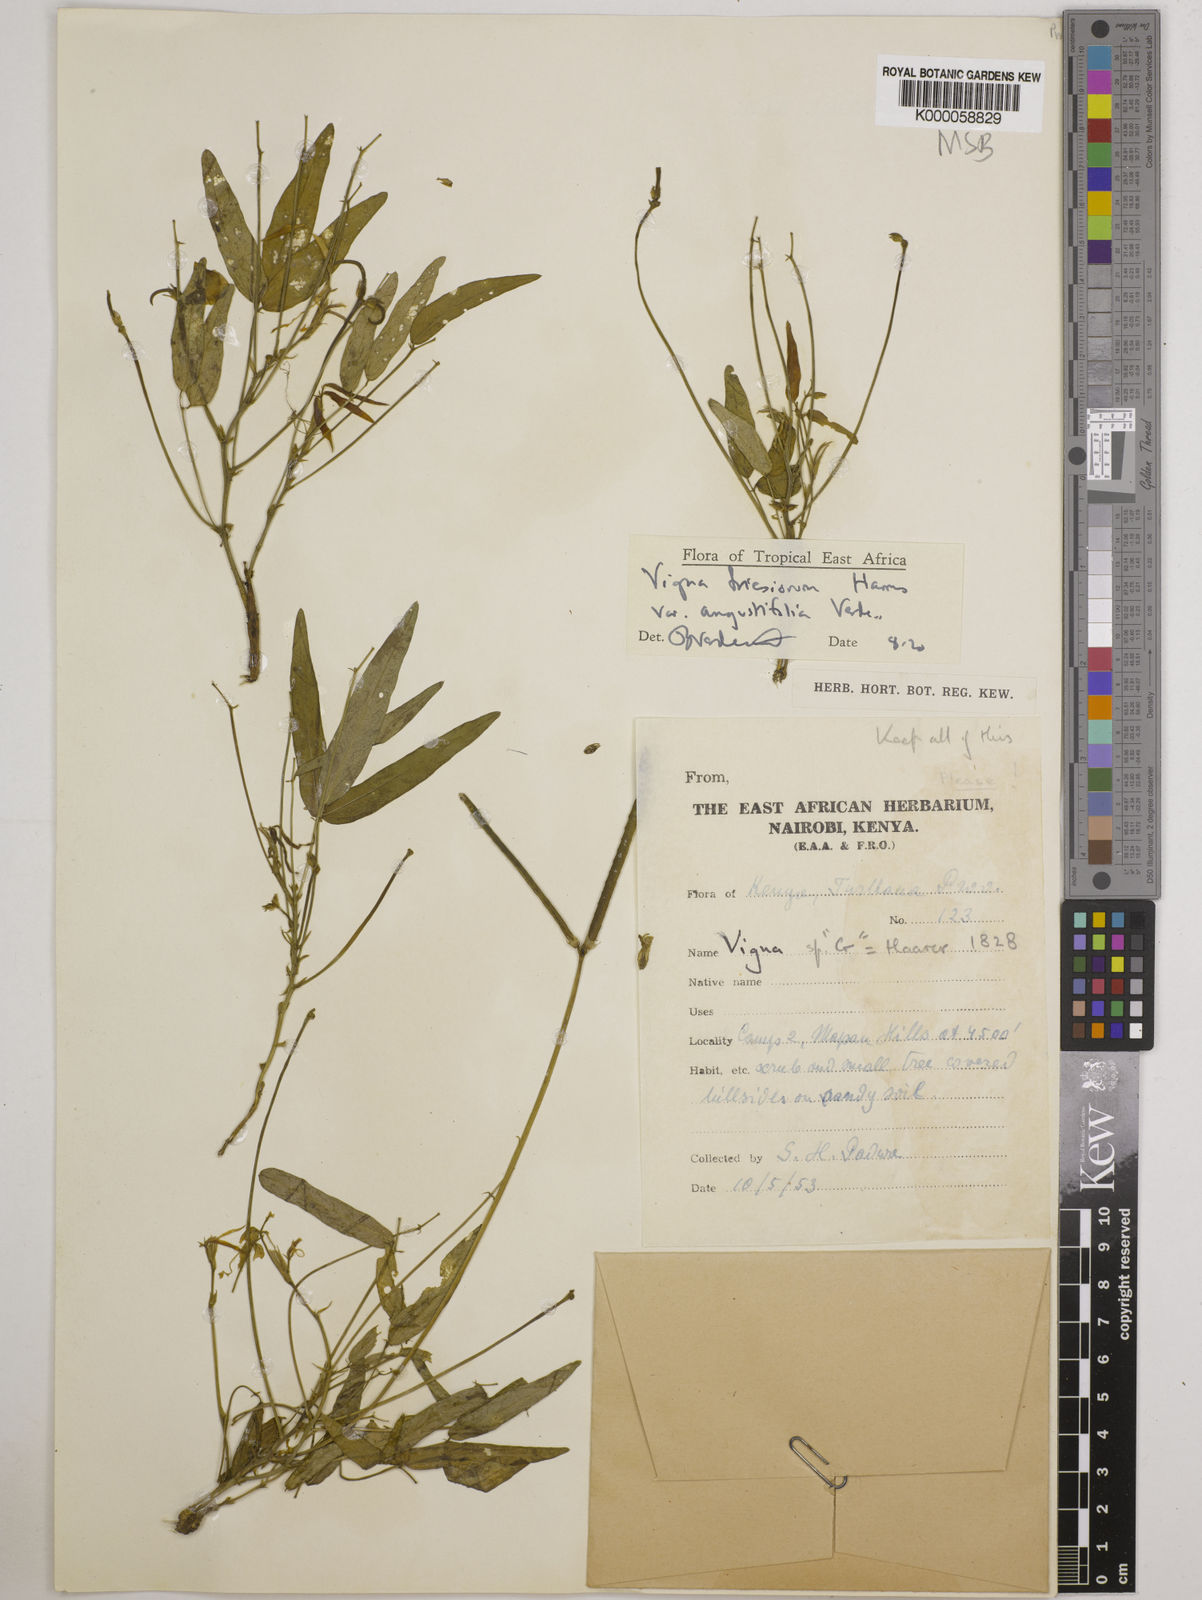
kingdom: Plantae
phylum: Tracheophyta
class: Magnoliopsida
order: Fabales
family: Fabaceae
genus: Vigna
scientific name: Vigna friesiorum
